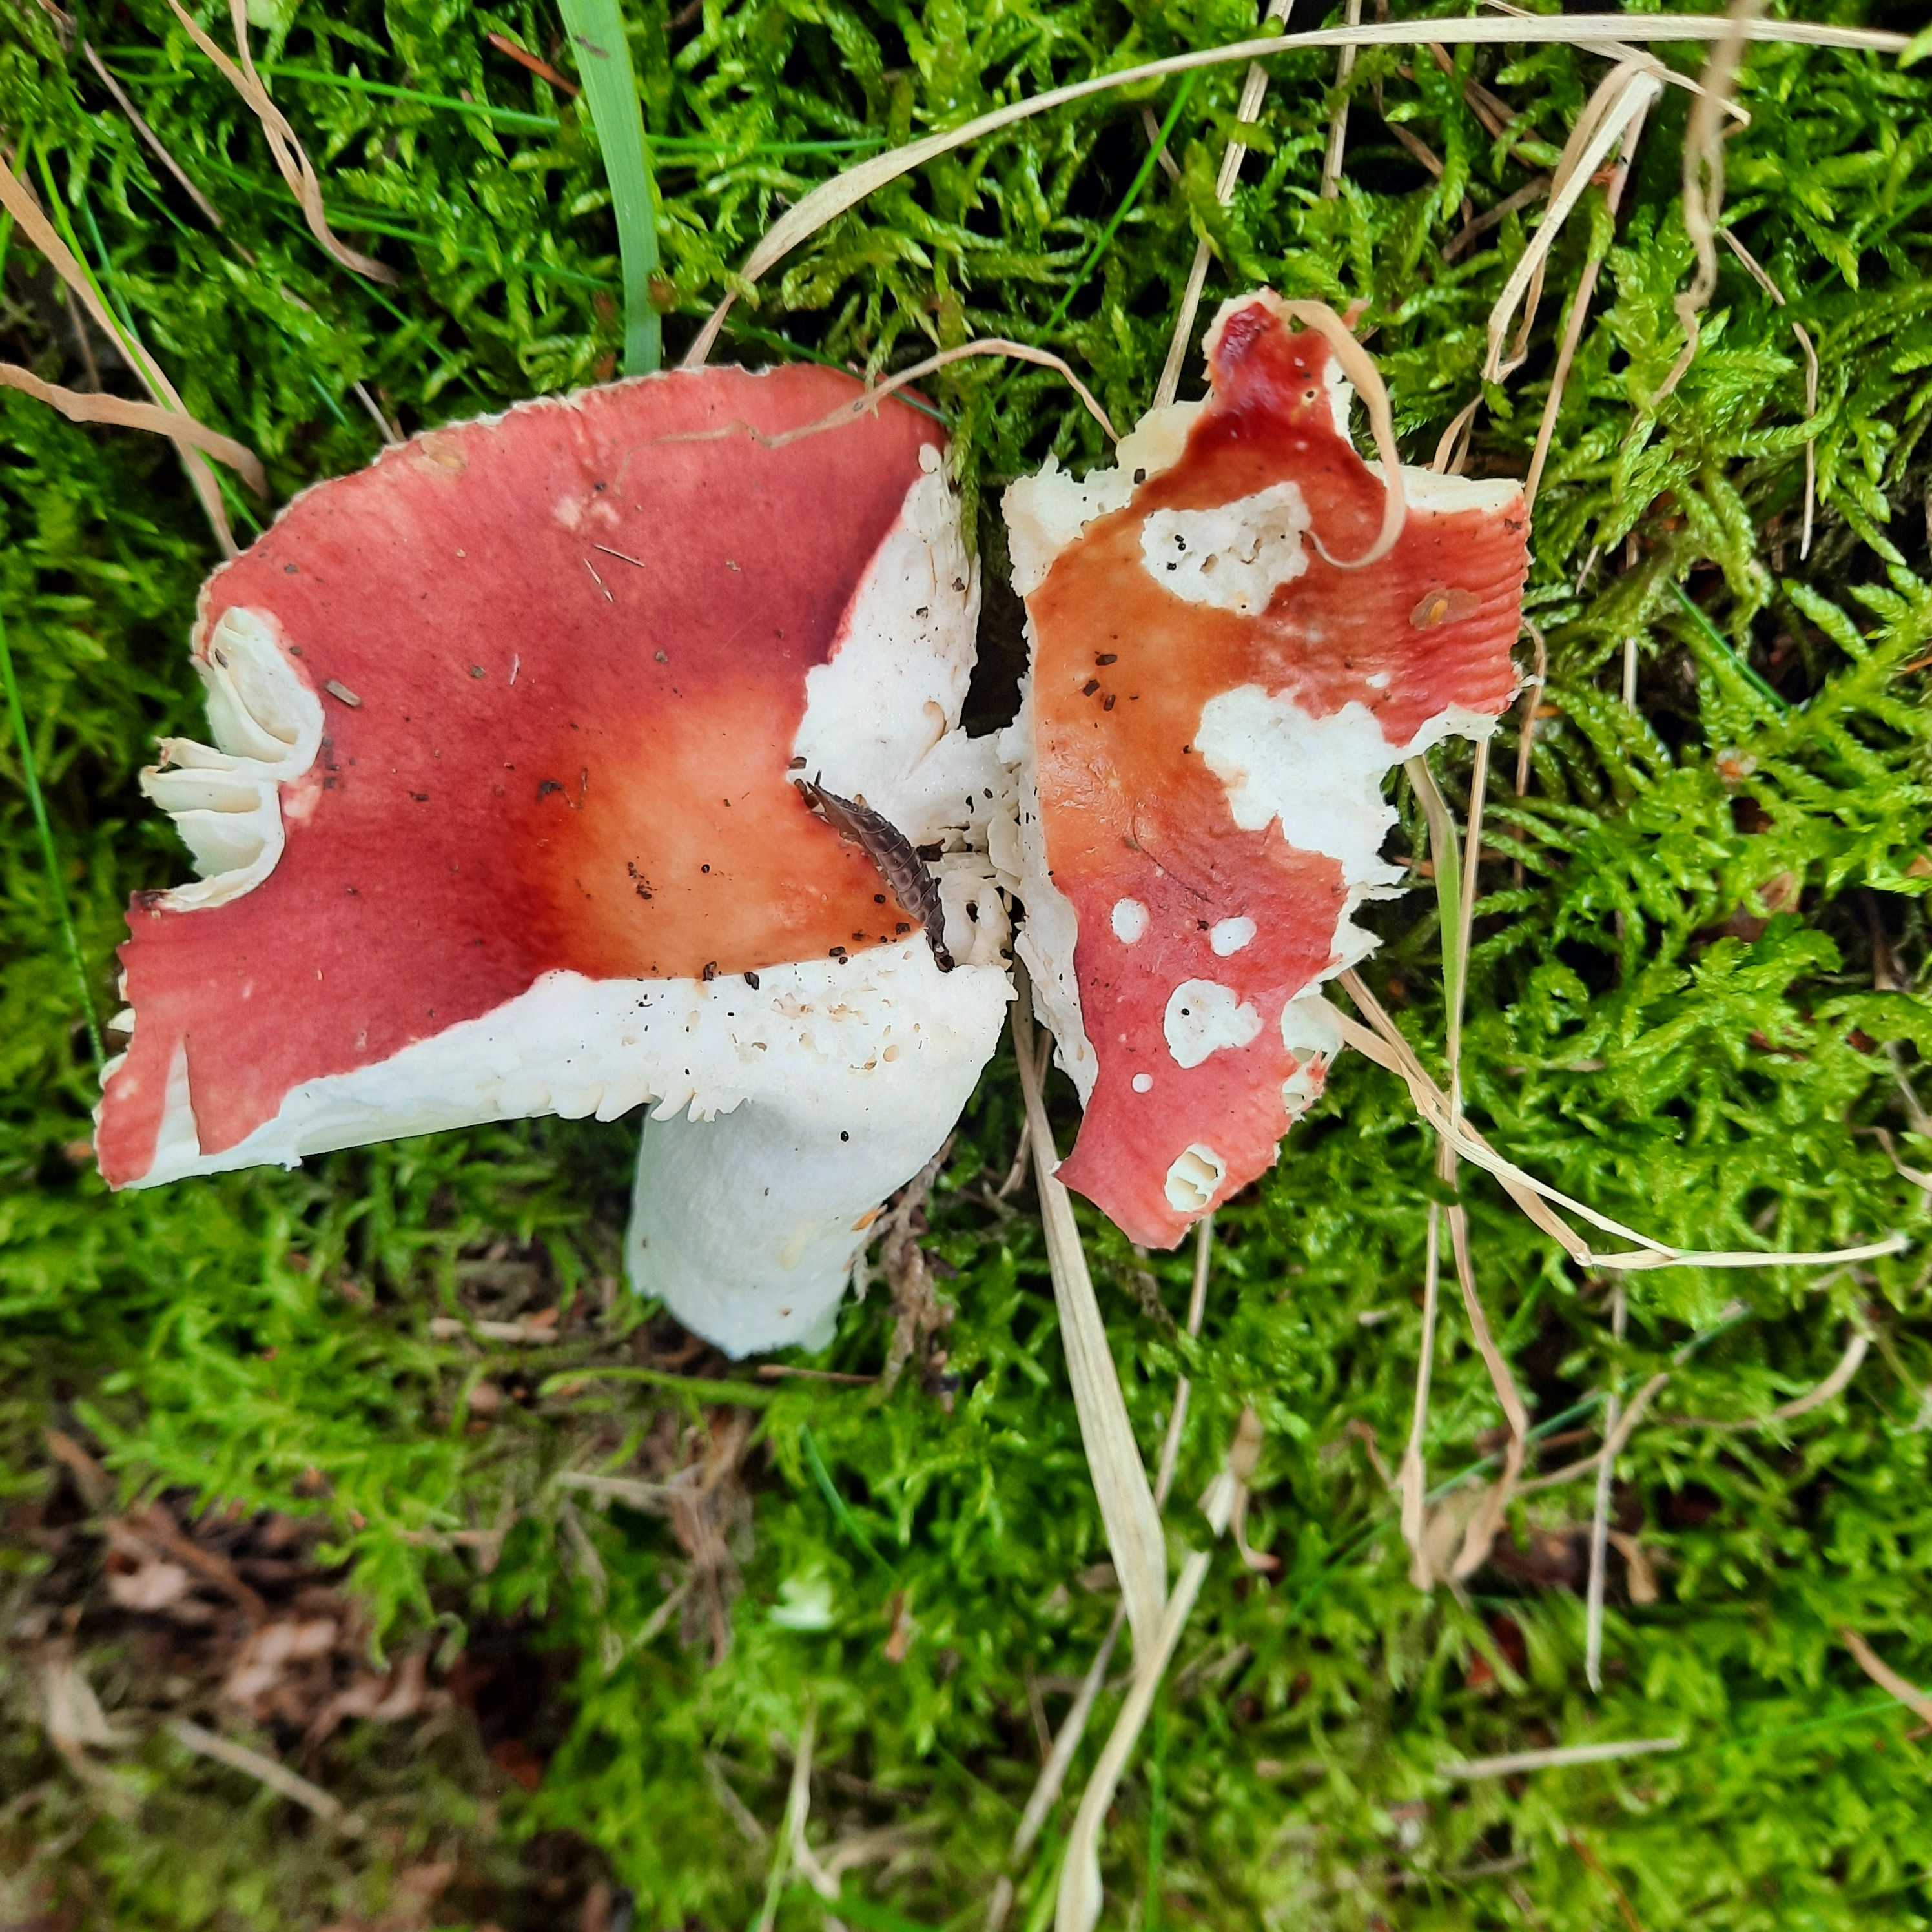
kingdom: Fungi
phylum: Basidiomycota
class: Agaricomycetes
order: Russulales
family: Russulaceae
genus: Russula
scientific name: Russula velenovskyi
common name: orangerød skørhat
